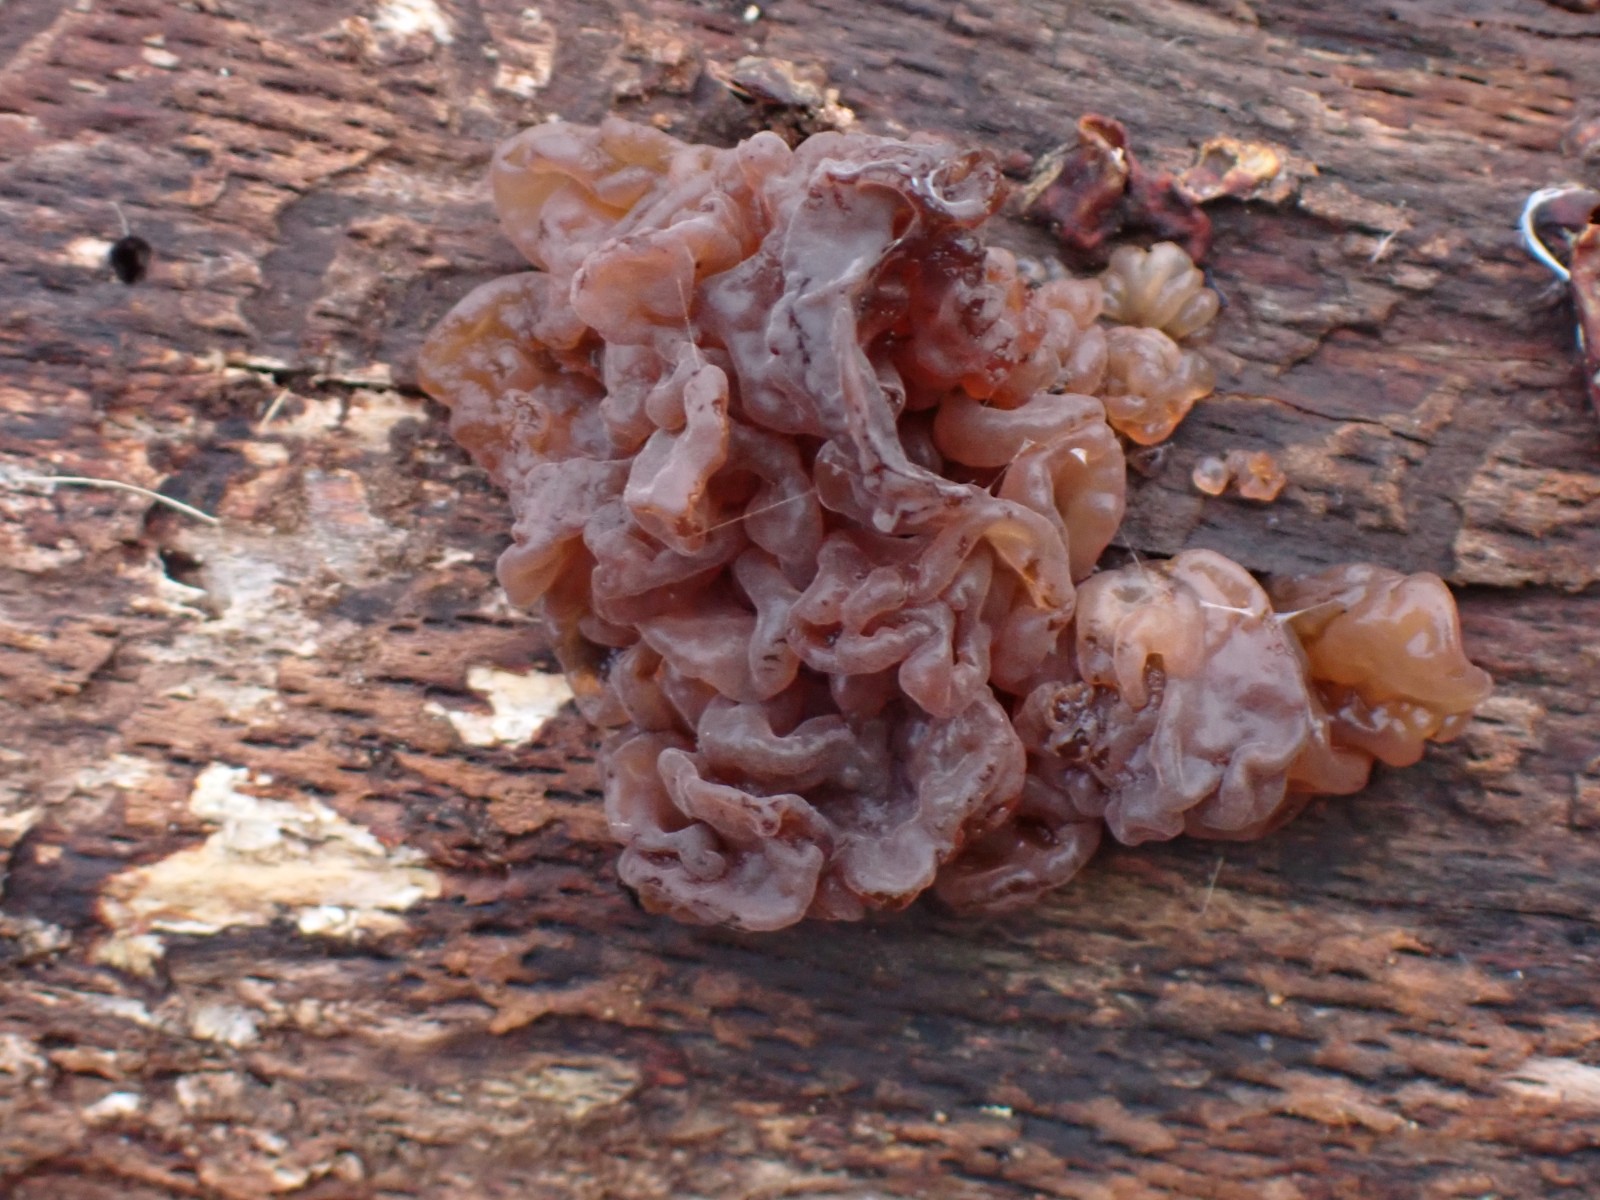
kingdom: Fungi
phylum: Basidiomycota
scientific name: Basidiomycota
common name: basidiesvampe
